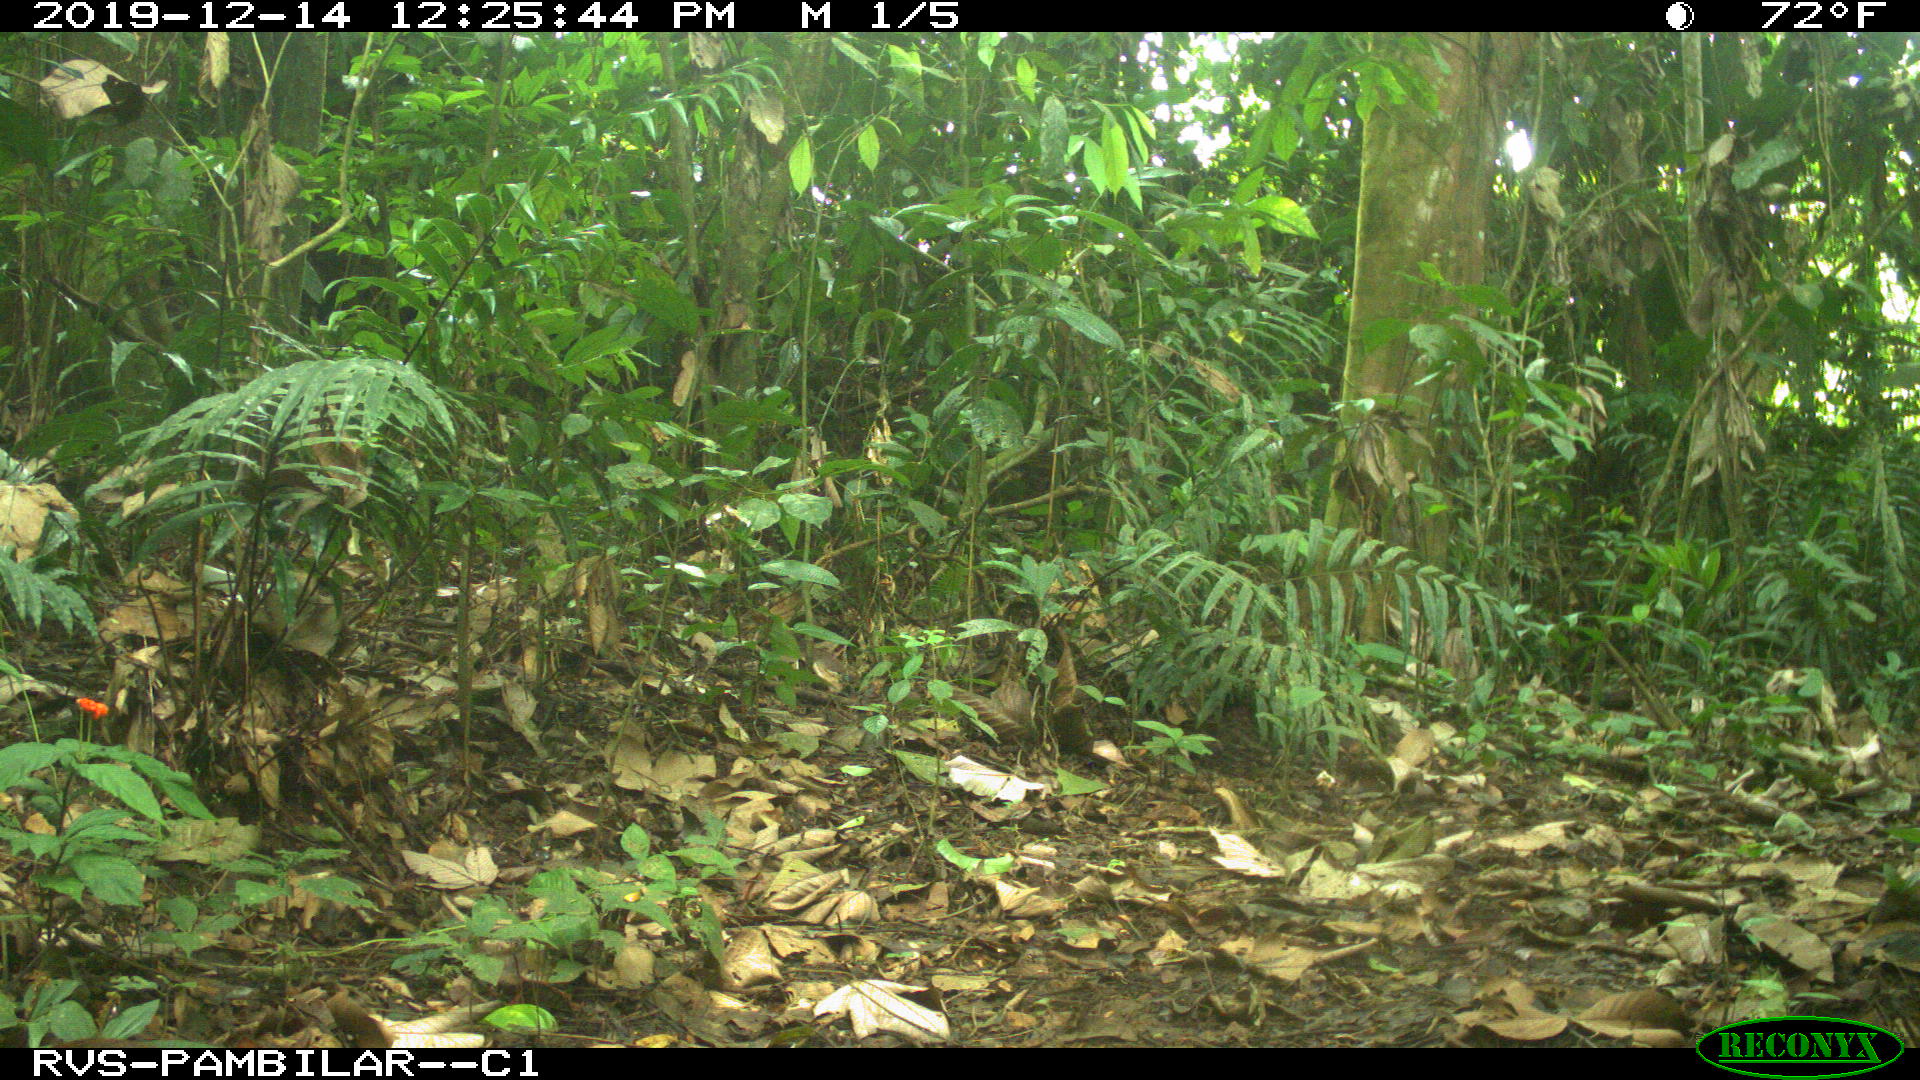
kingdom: Animalia
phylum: Chordata
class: Mammalia
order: Rodentia
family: Dasyproctidae
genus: Dasyprocta
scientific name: Dasyprocta punctata
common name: Central american agouti
